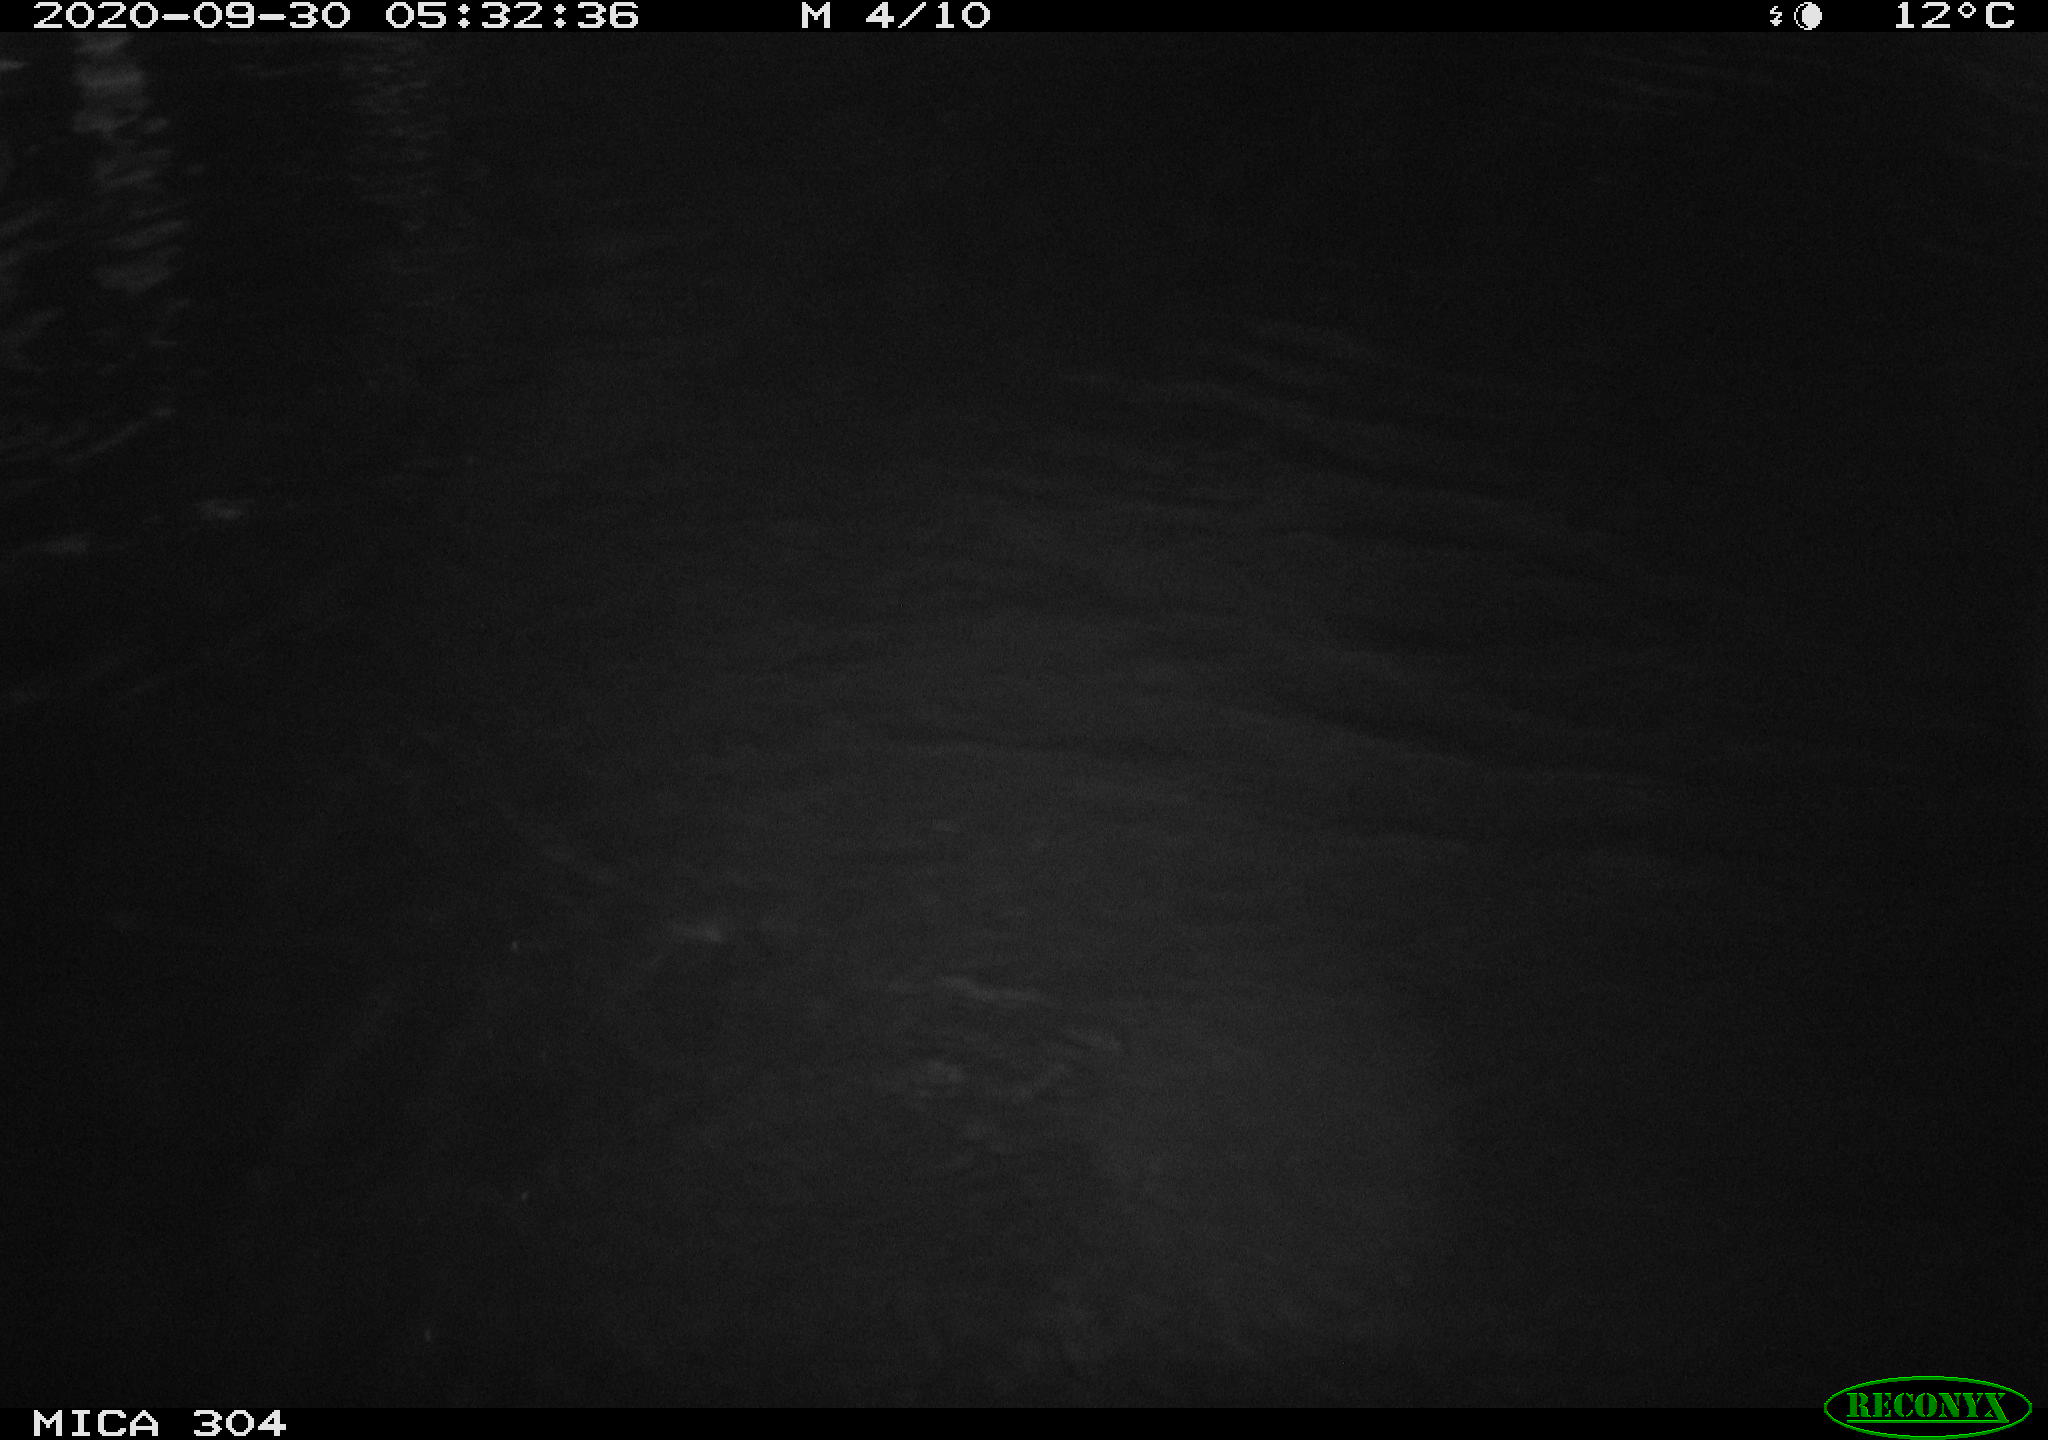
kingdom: Animalia
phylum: Chordata
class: Mammalia
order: Rodentia
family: Cricetidae
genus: Ondatra
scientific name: Ondatra zibethicus
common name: Muskrat
